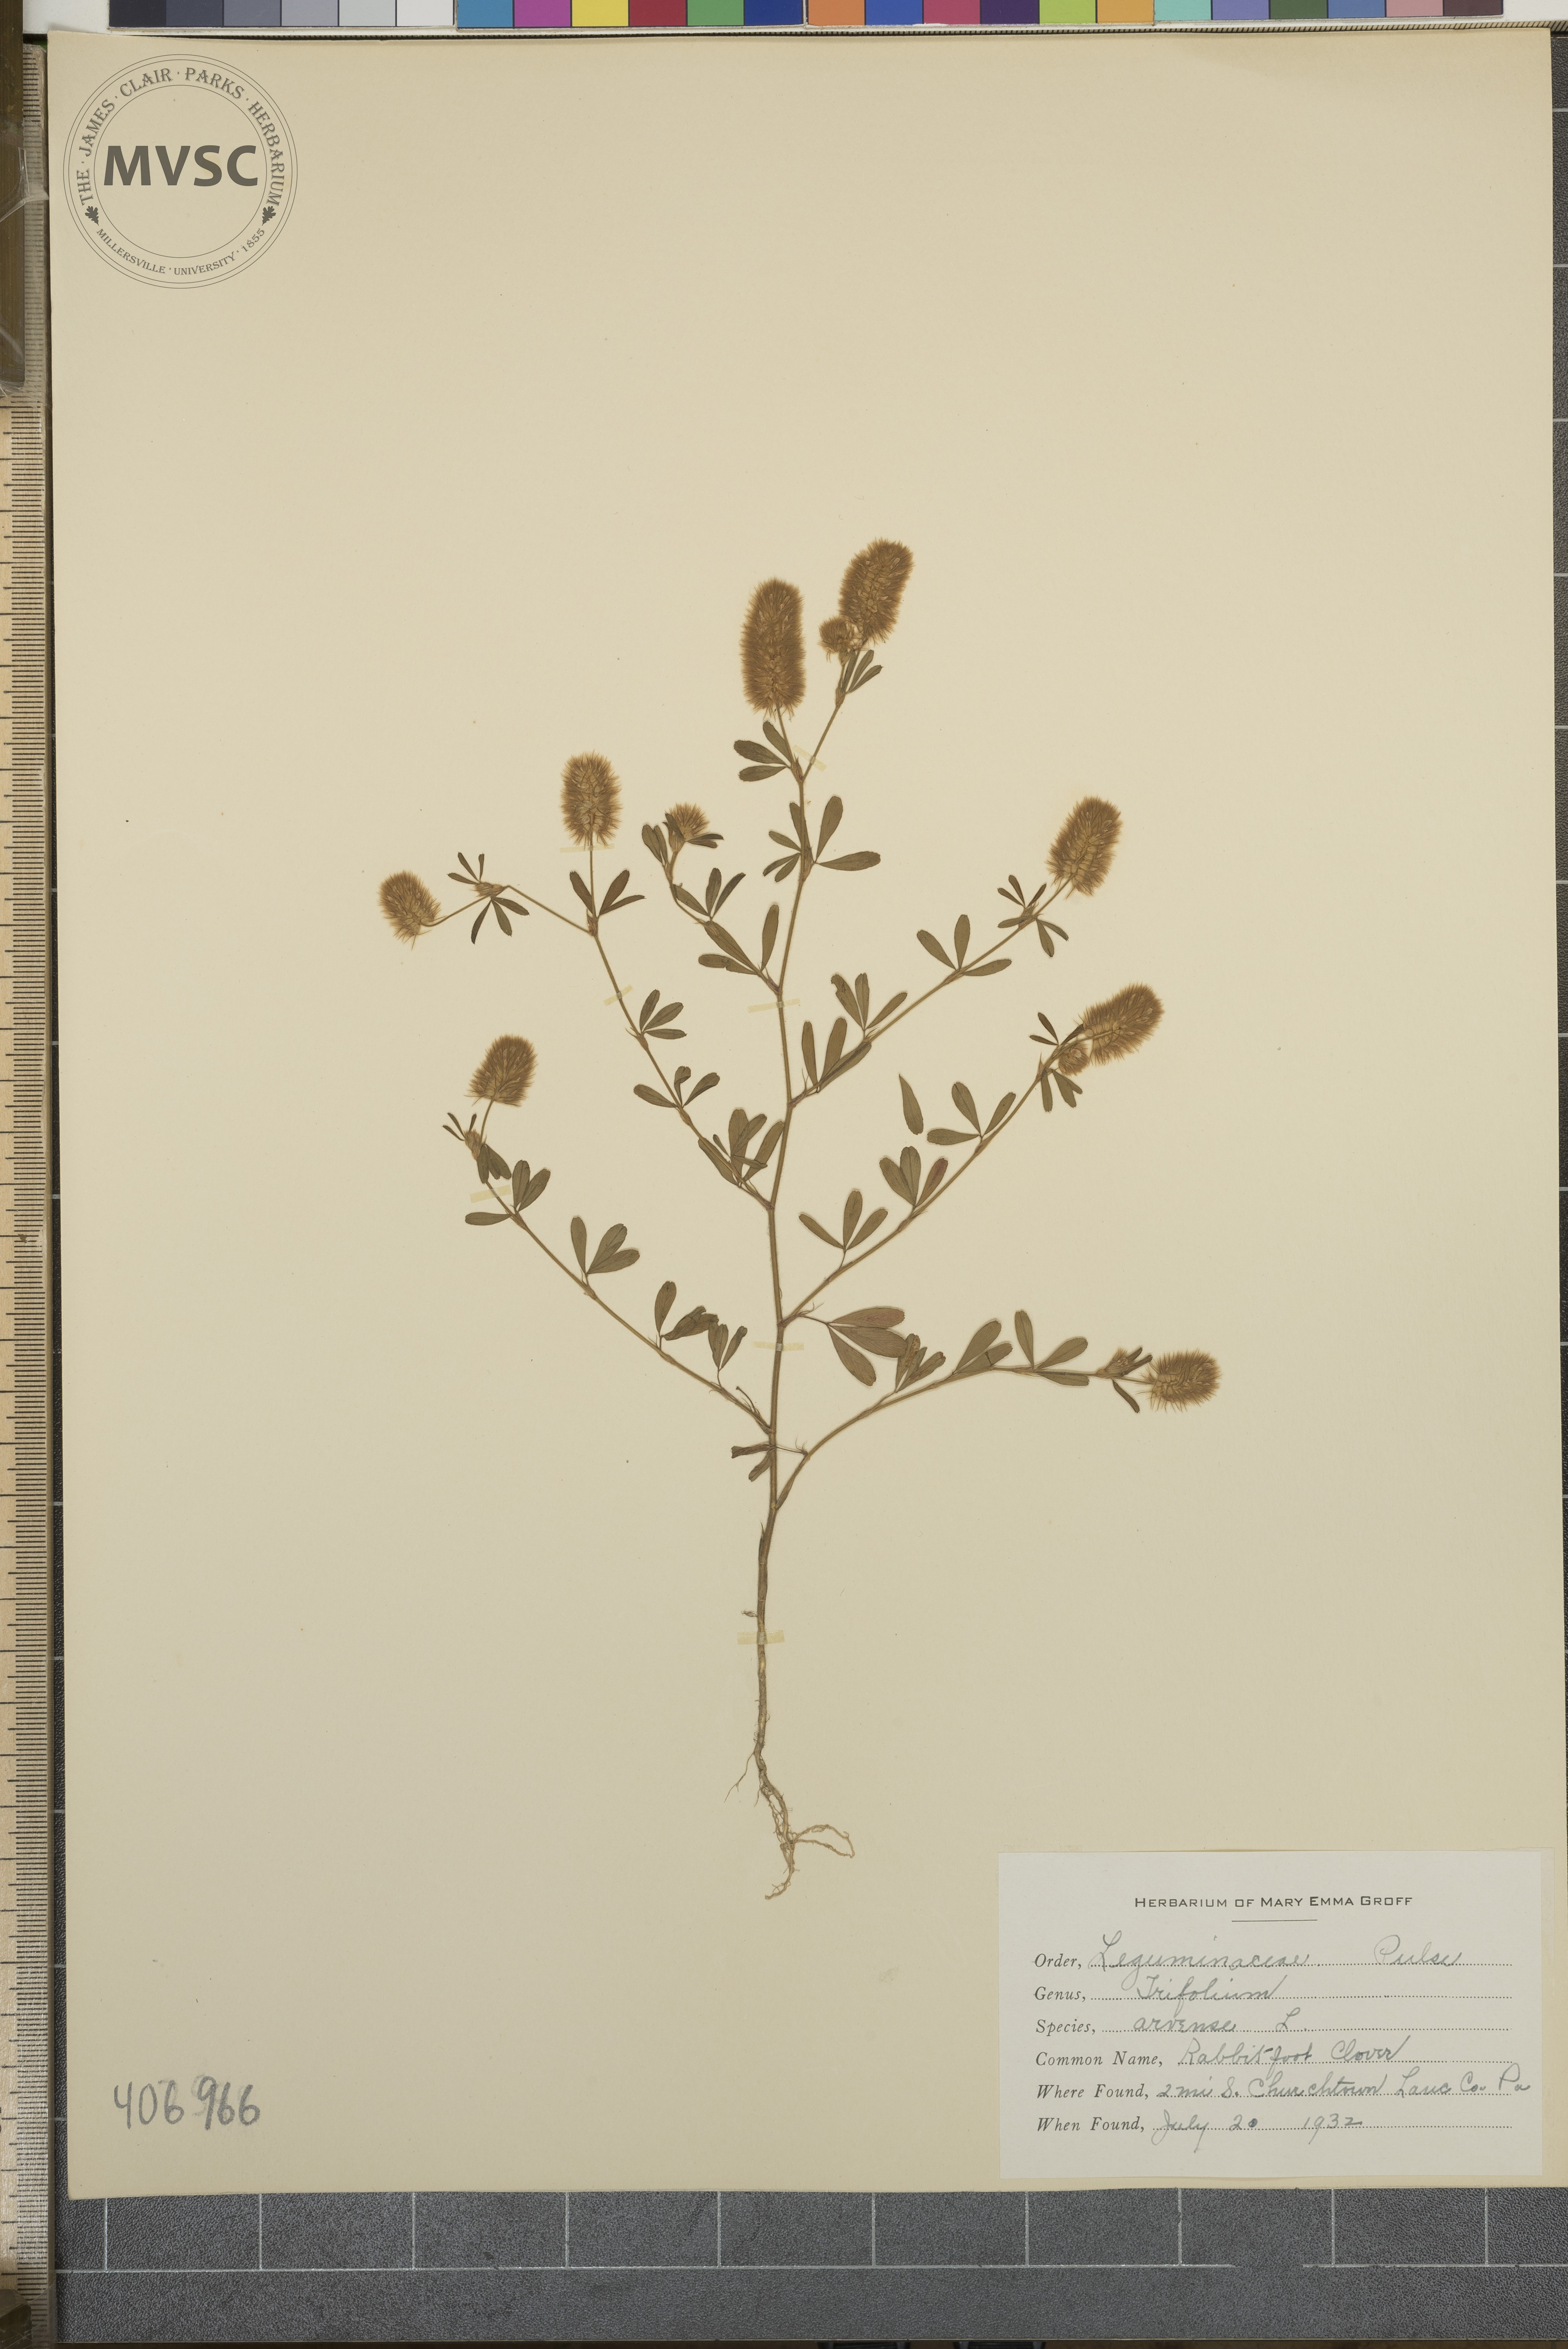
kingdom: Plantae
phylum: Tracheophyta
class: Magnoliopsida
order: Fabales
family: Fabaceae
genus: Trifolium
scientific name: Trifolium arvense
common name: Rabbit-foot clover
